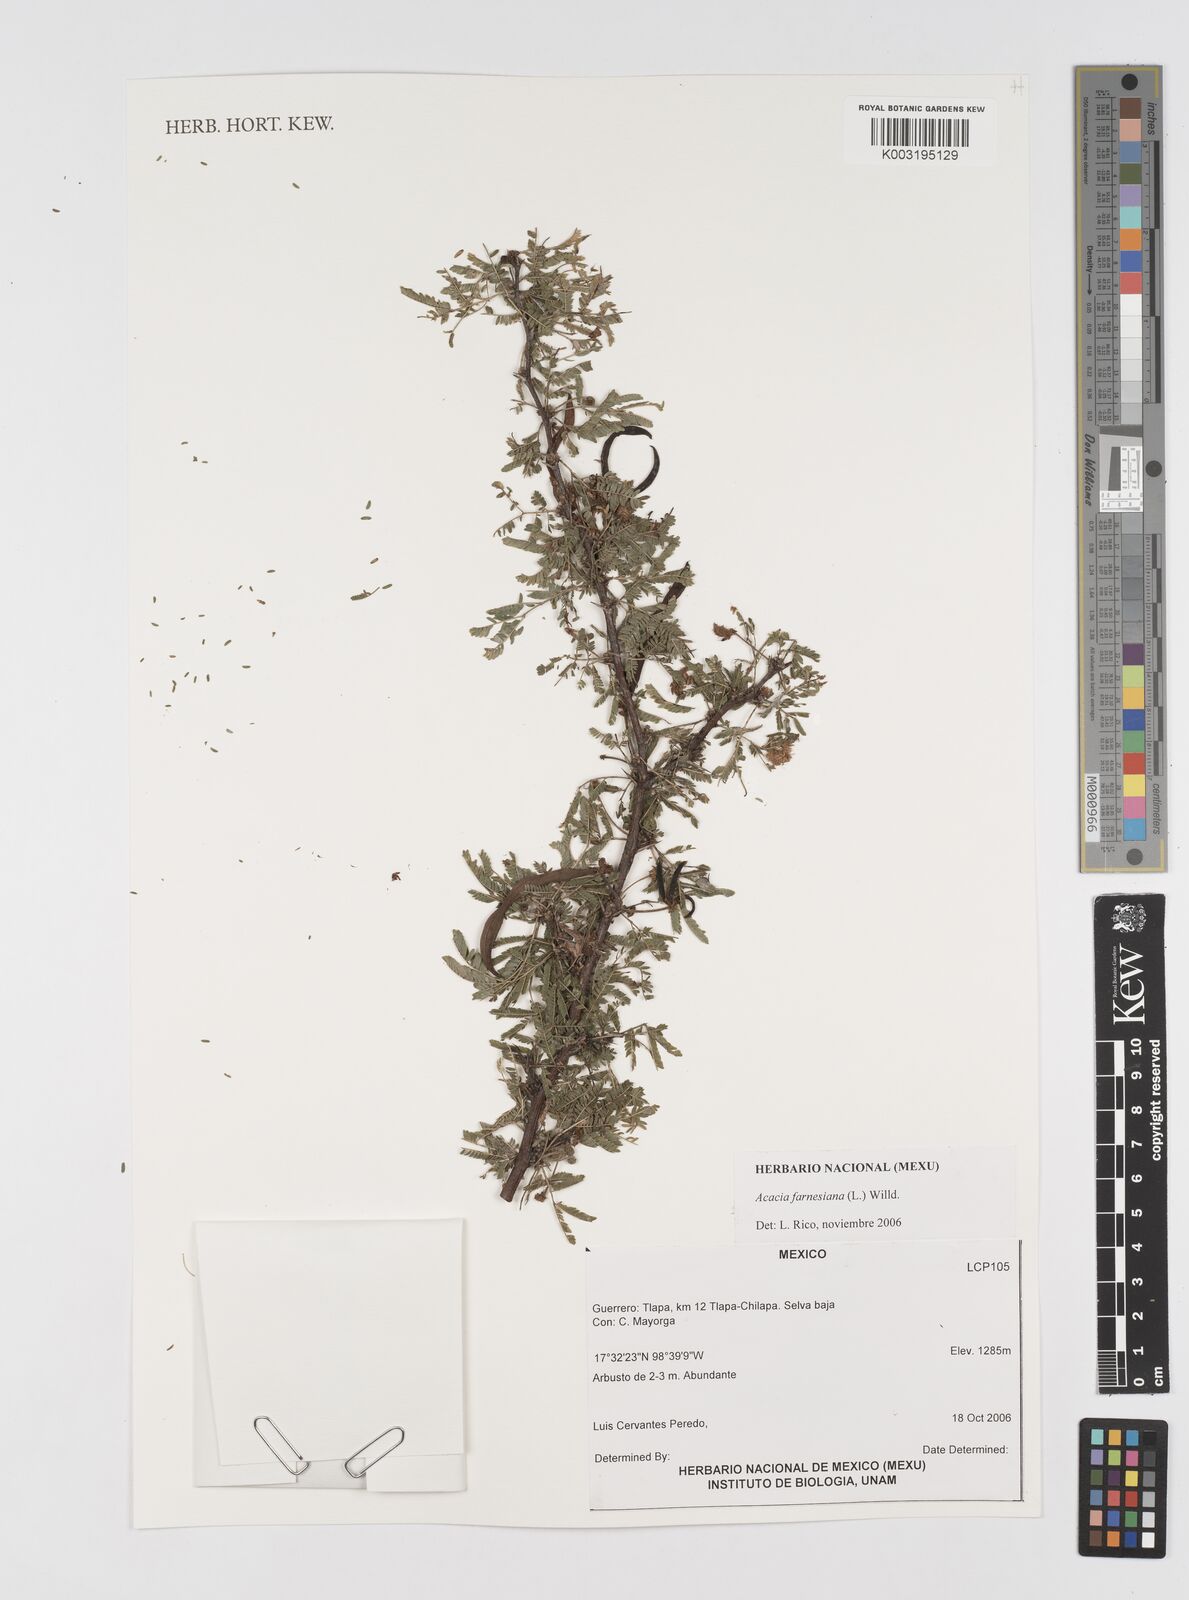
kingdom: Plantae
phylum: Tracheophyta
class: Magnoliopsida
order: Fabales
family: Fabaceae
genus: Vachellia
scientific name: Vachellia farnesiana
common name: Sweet acacia
